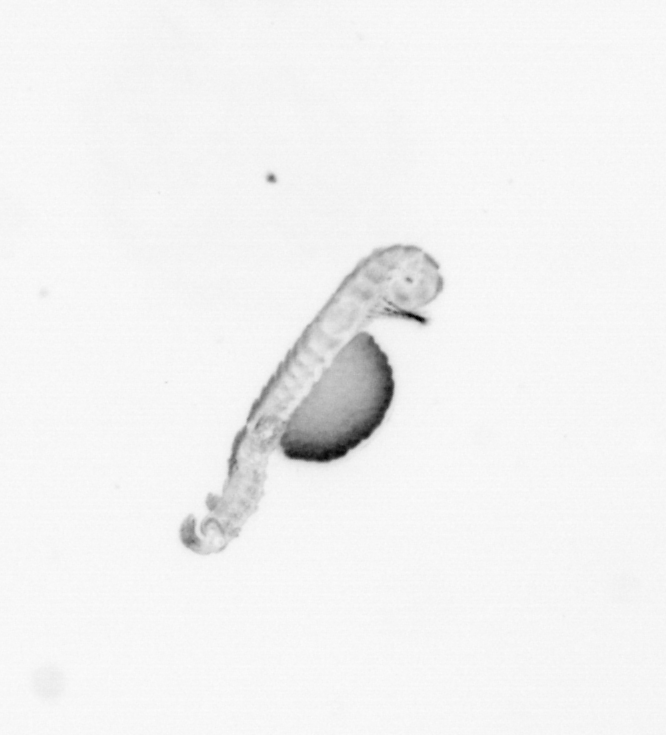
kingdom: Animalia
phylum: Annelida
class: Polychaeta
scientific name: Polychaeta
